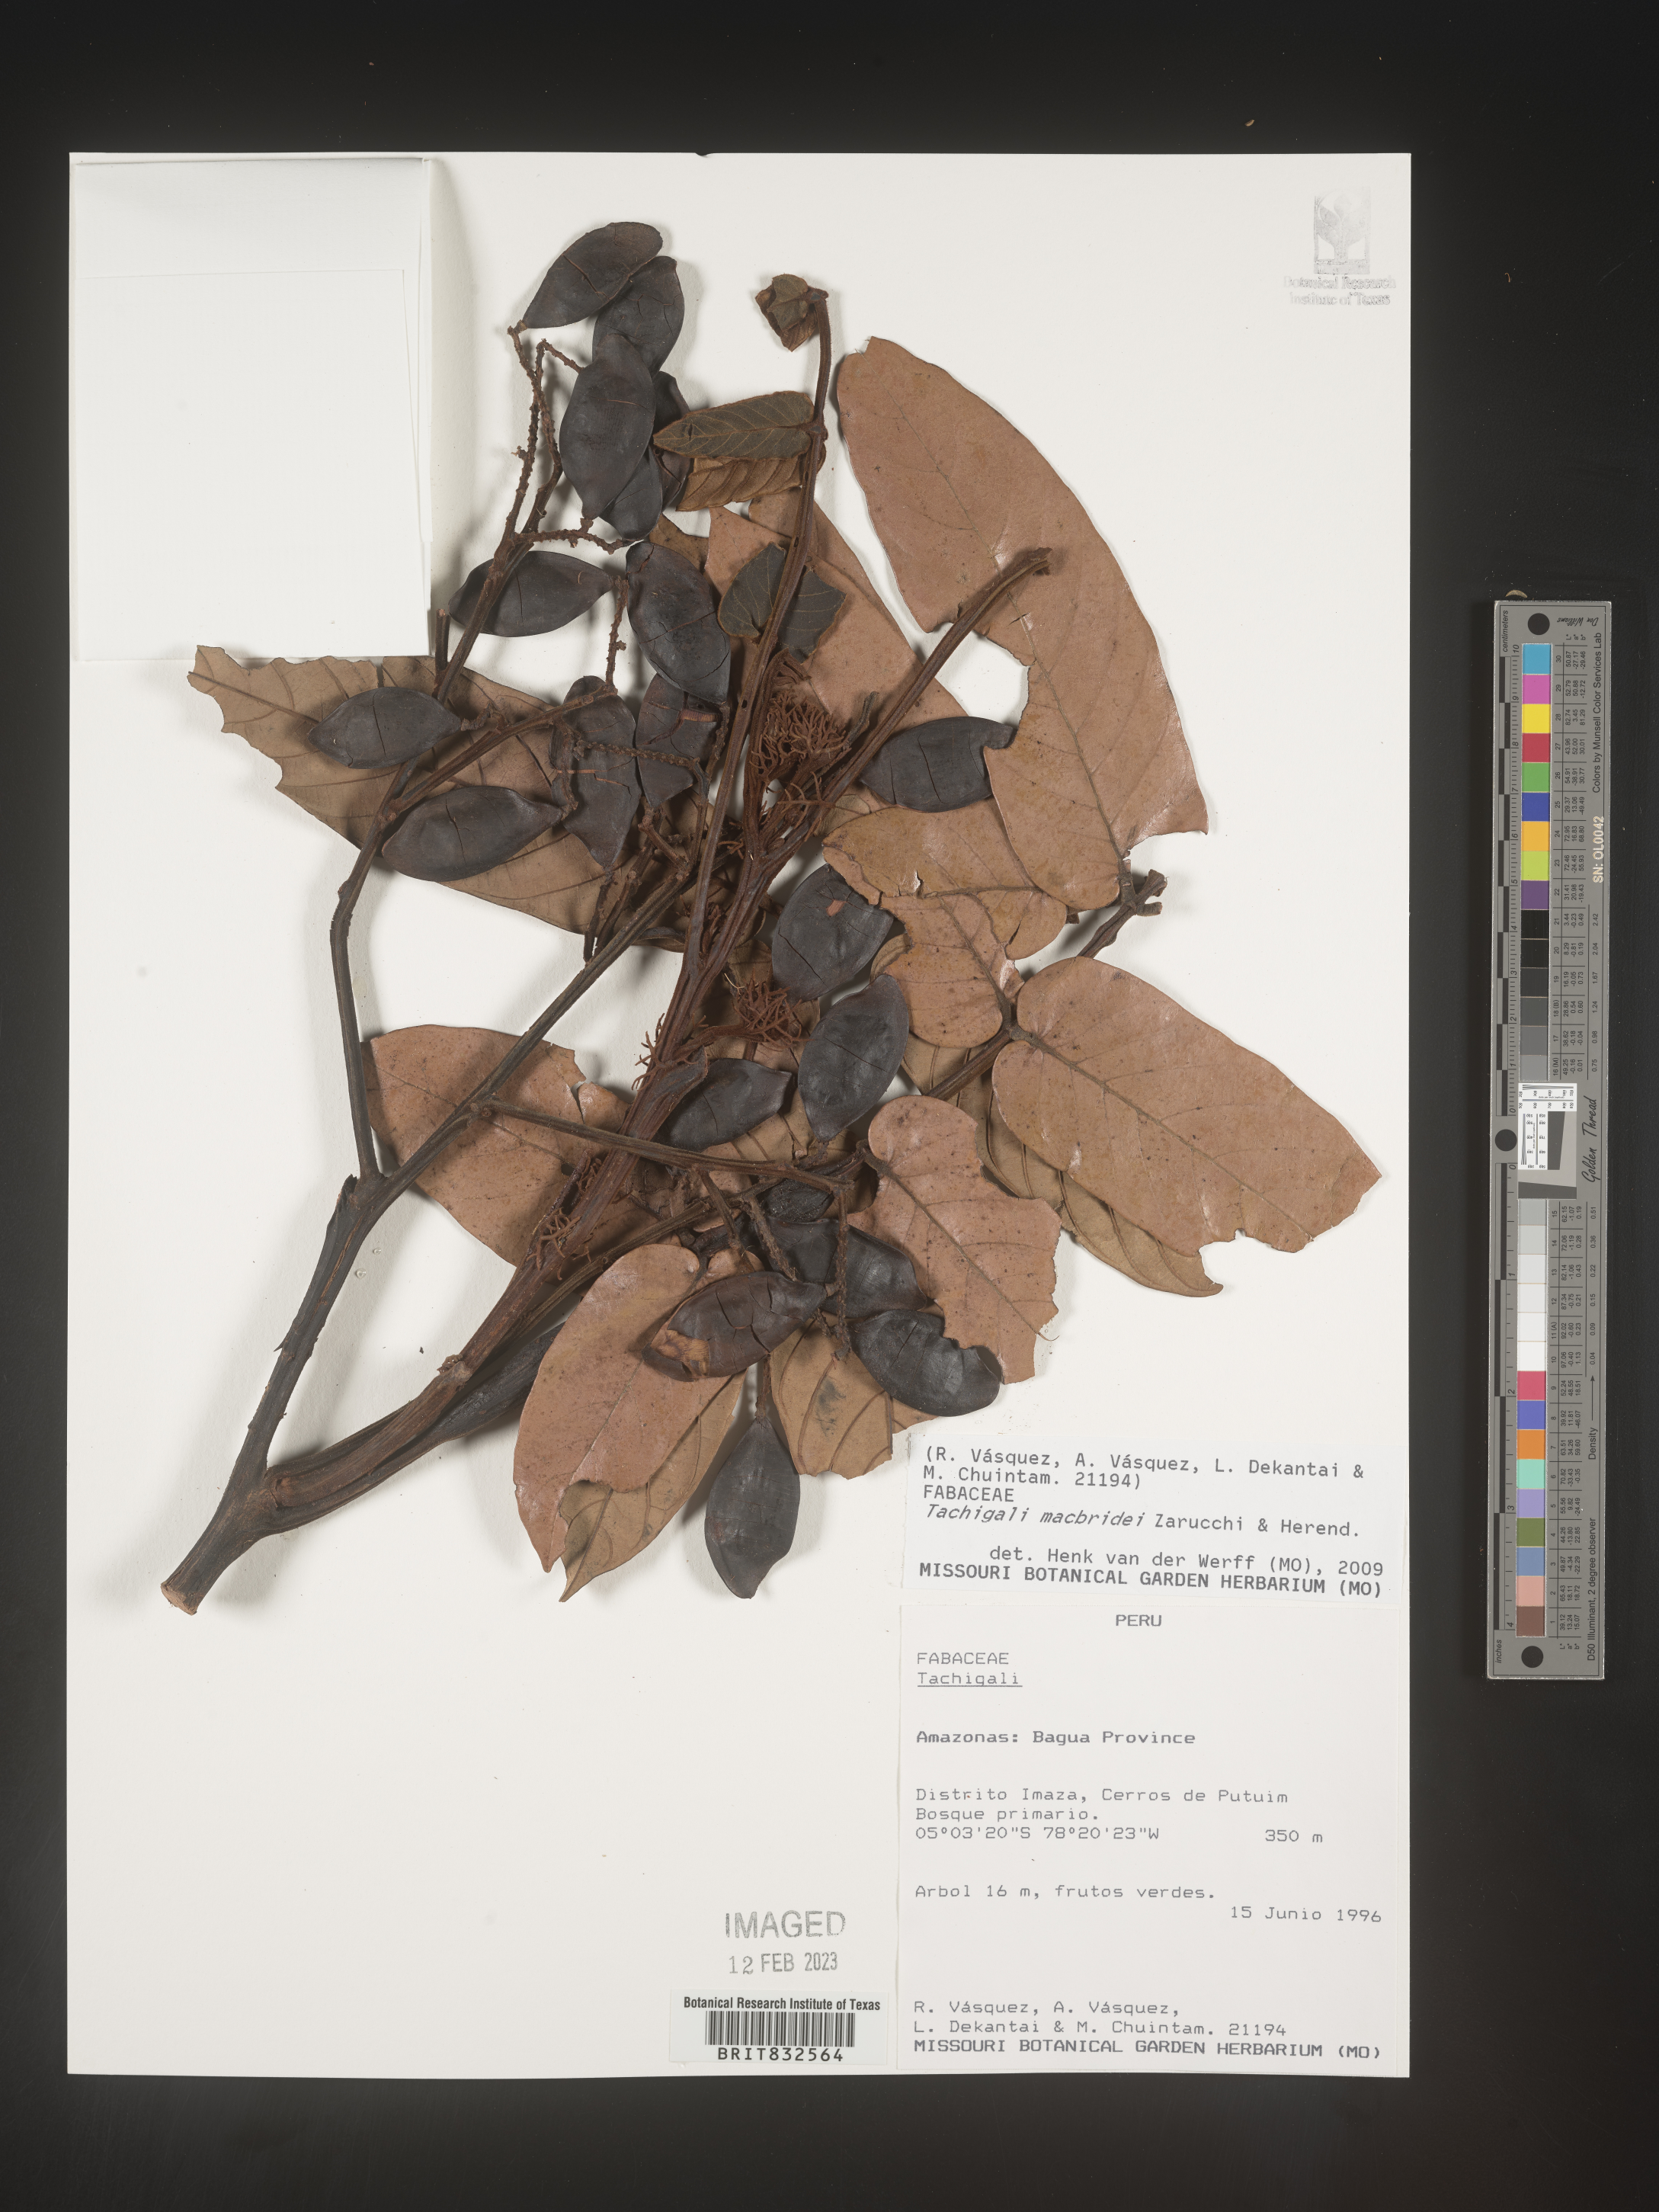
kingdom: Plantae
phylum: Tracheophyta
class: Magnoliopsida
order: Fabales
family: Fabaceae
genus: Tachigali
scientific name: Tachigali macbridei
